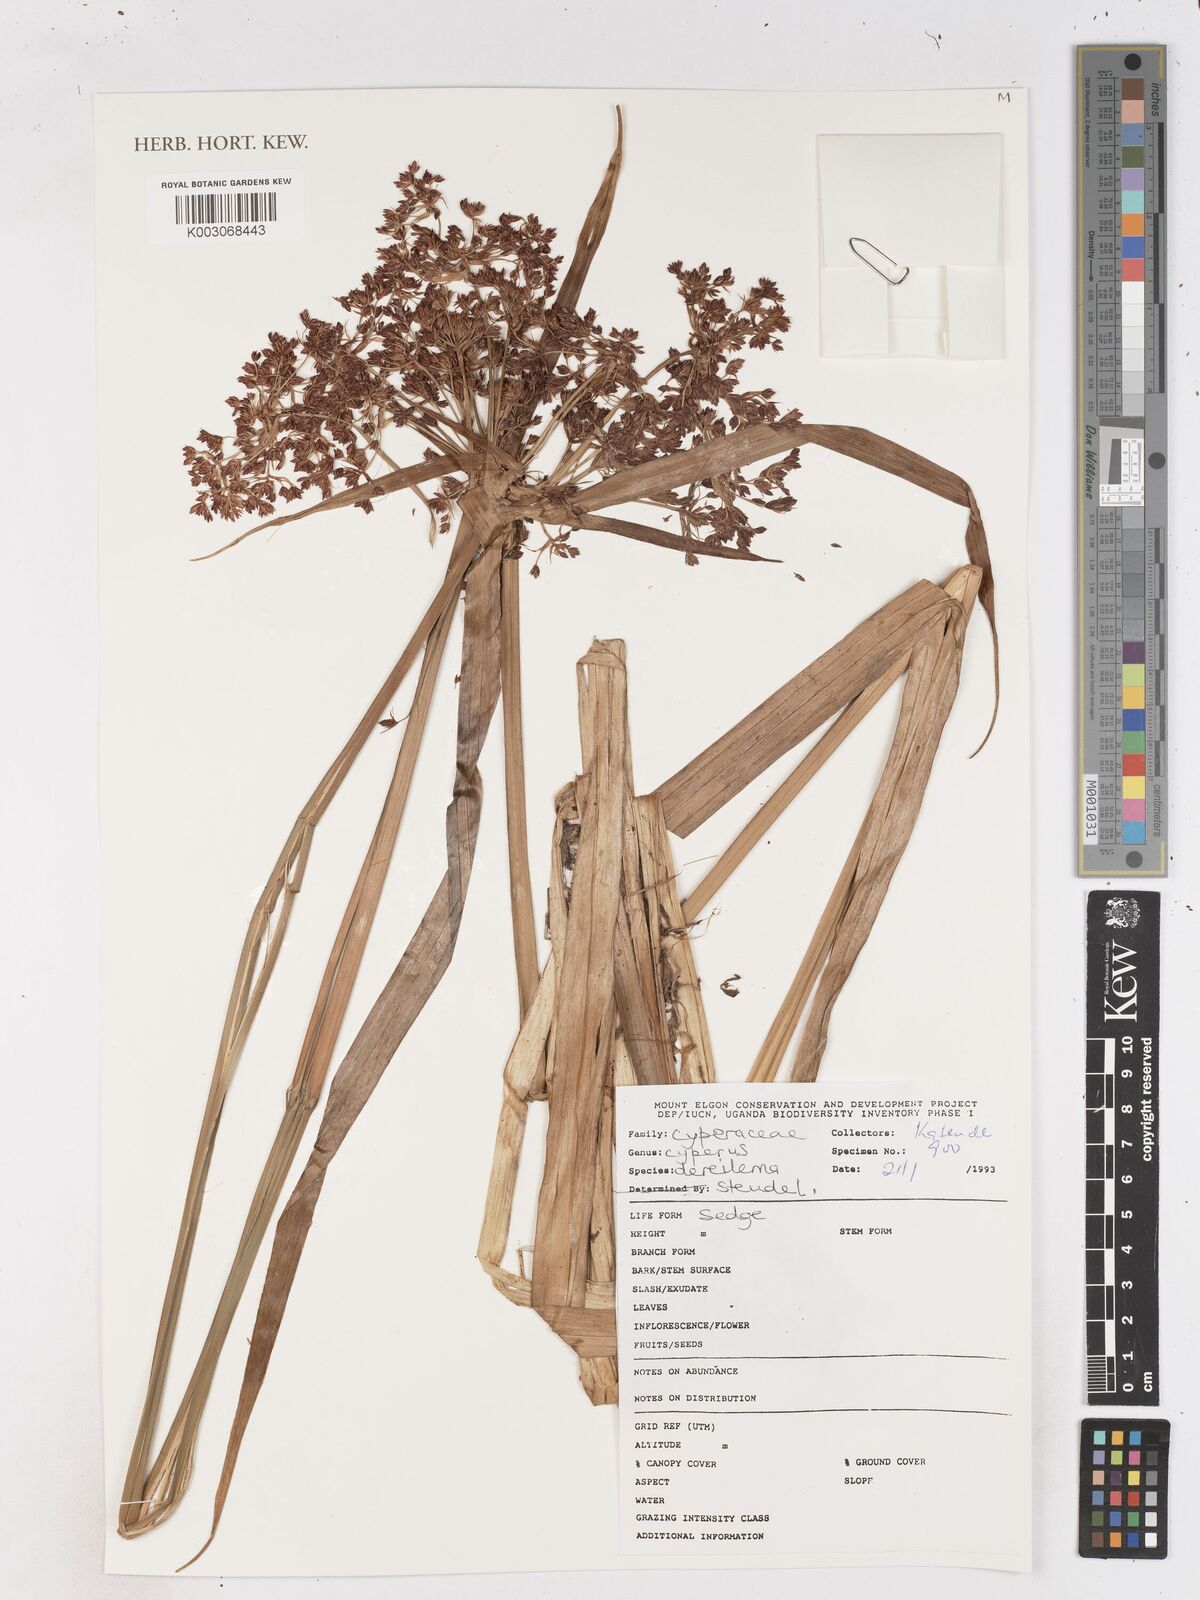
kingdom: Plantae
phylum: Tracheophyta
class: Liliopsida
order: Poales
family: Cyperaceae
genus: Cyperus
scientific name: Cyperus derreilema
